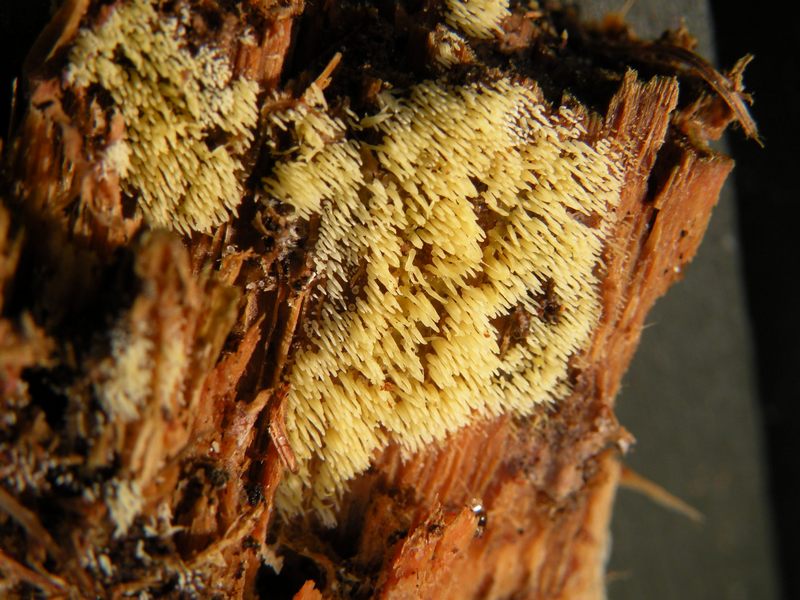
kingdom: Fungi
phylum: Basidiomycota
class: Agaricomycetes
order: Agaricales
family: Clavariaceae
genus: Mucronella
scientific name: Mucronella flava
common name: gul hængepig
